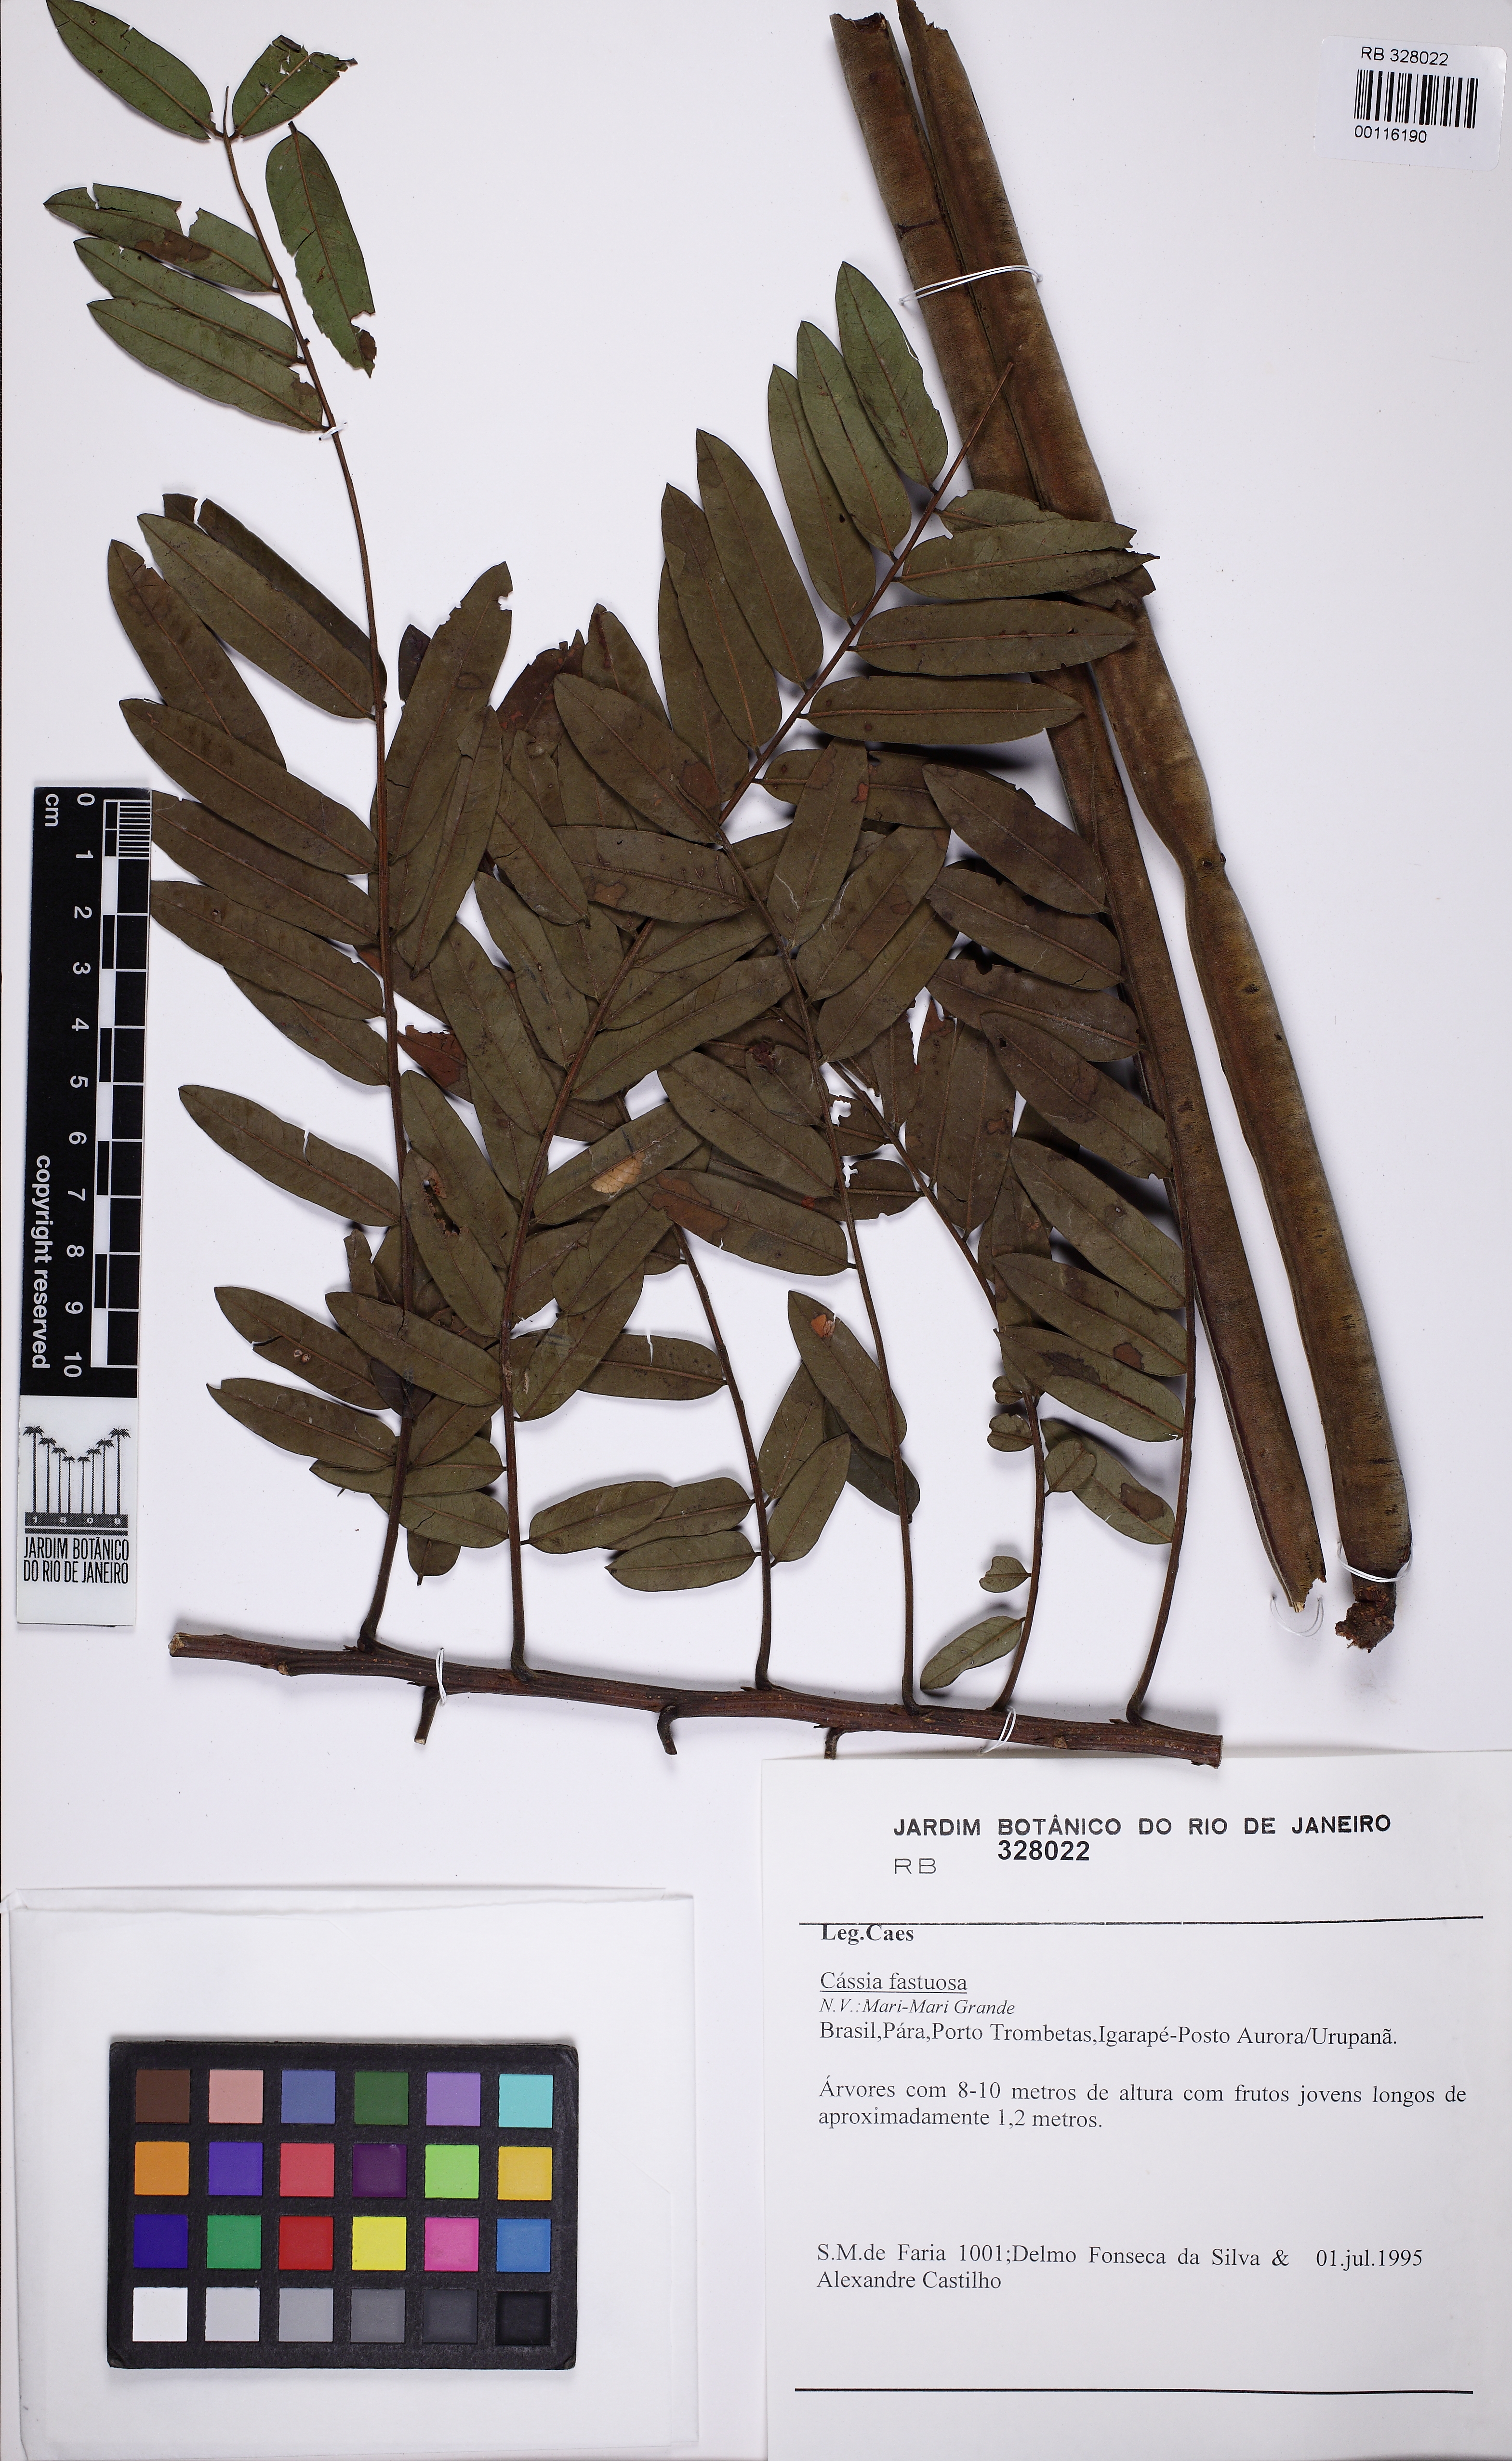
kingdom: Plantae
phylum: Tracheophyta
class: Magnoliopsida
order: Fabales
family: Fabaceae
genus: Cassia
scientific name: Cassia fastuosa
